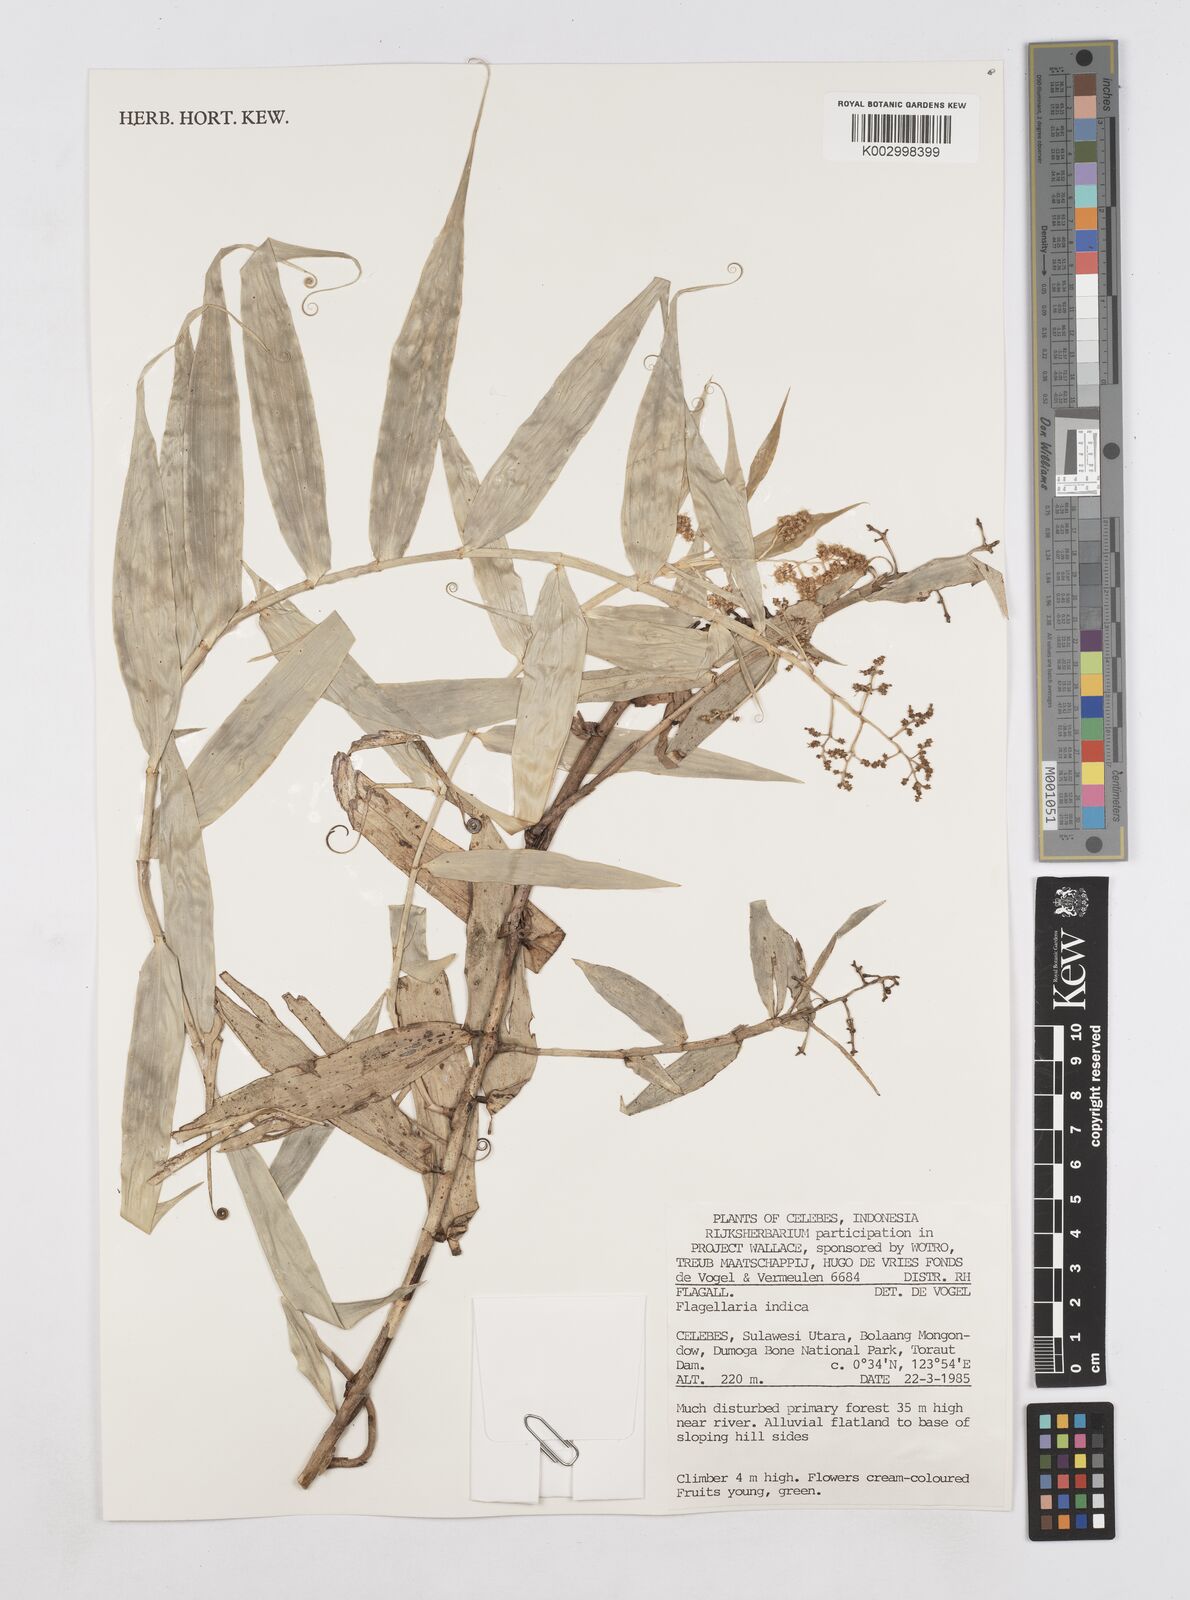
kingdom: Plantae
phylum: Tracheophyta
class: Liliopsida
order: Poales
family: Flagellariaceae
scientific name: Flagellariaceae
